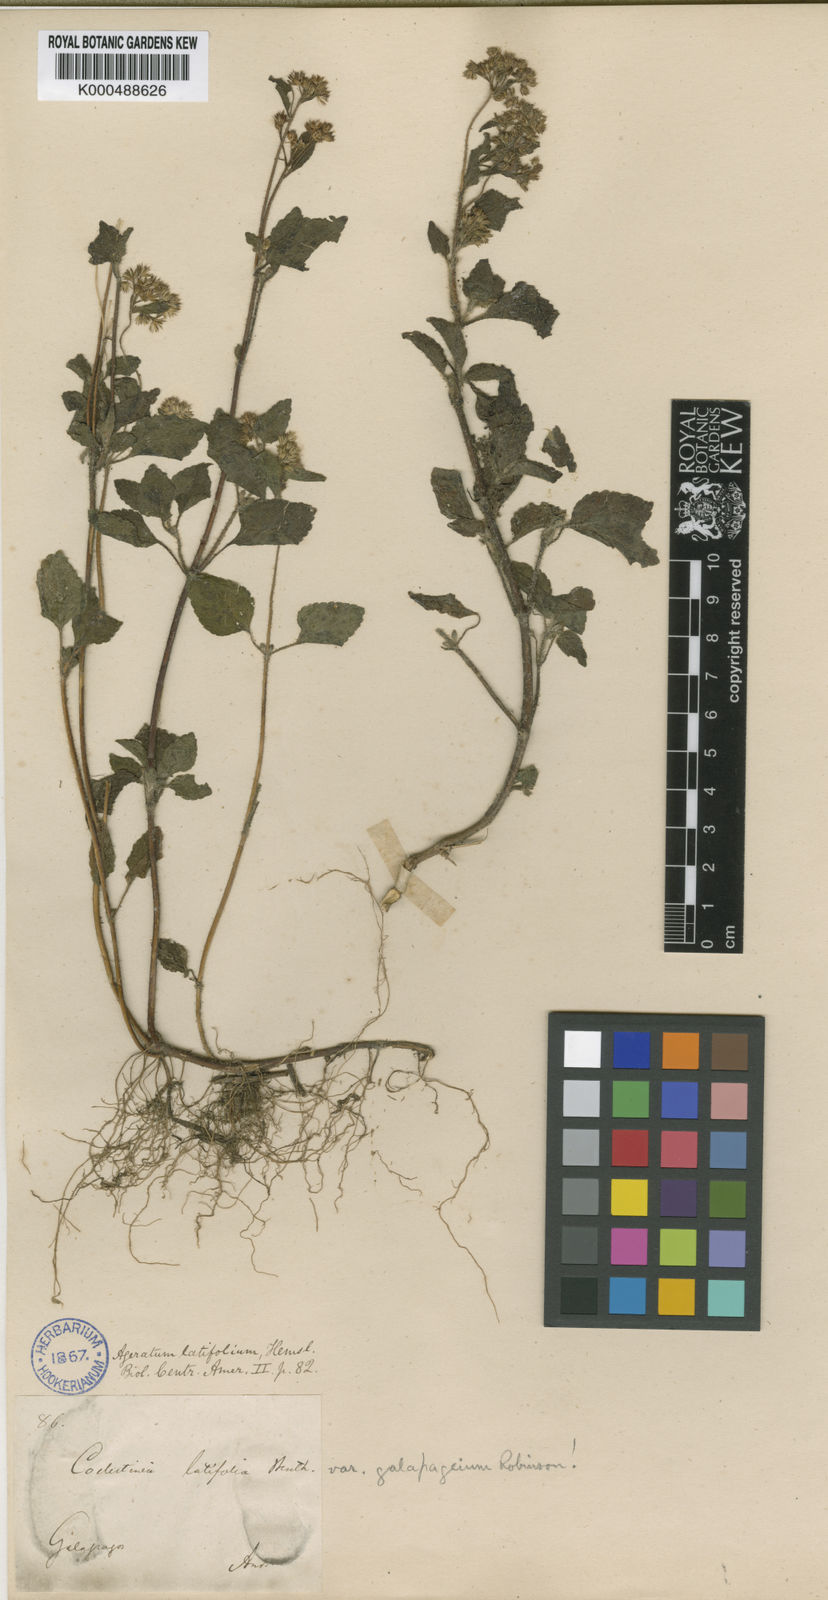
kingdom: Plantae
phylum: Tracheophyta
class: Magnoliopsida
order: Asterales
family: Asteraceae
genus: Ageratum
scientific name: Ageratum conyzoides
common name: Tropical whiteweed
